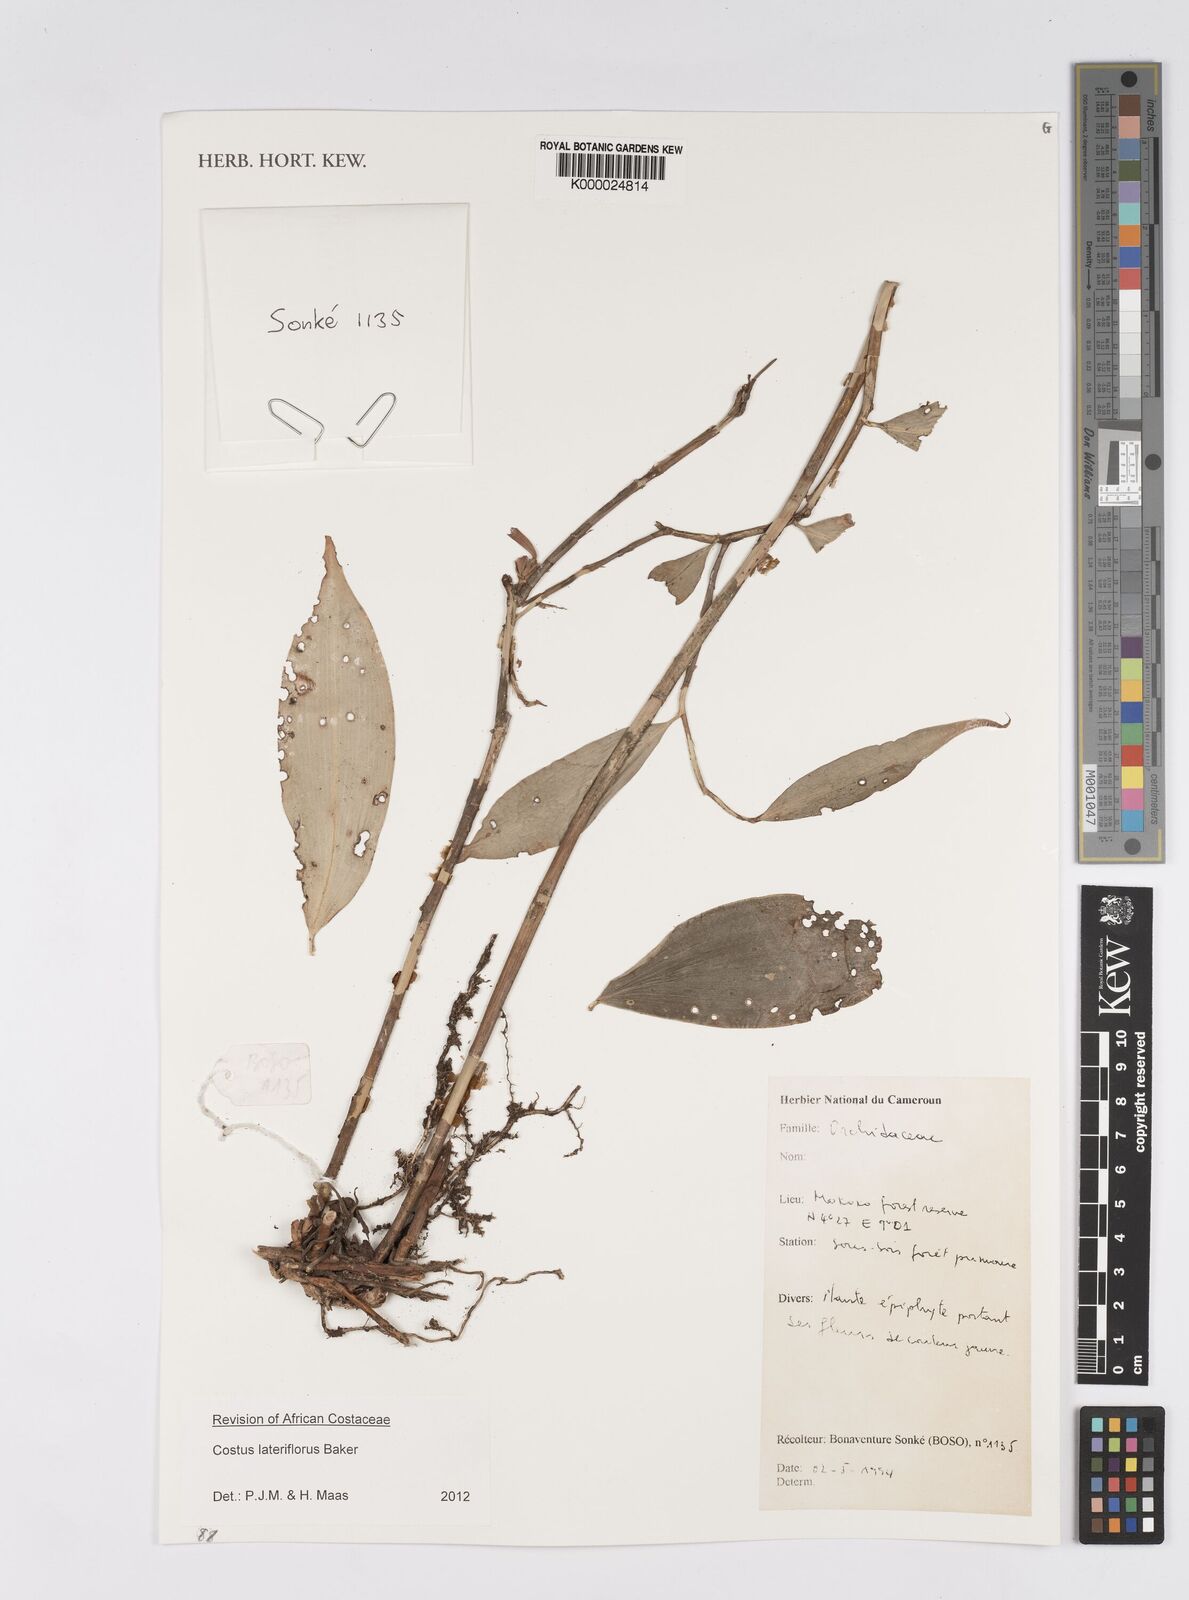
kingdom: Plantae
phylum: Tracheophyta
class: Liliopsida
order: Zingiberales
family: Costaceae
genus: Costus
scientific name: Costus lateriflorus
